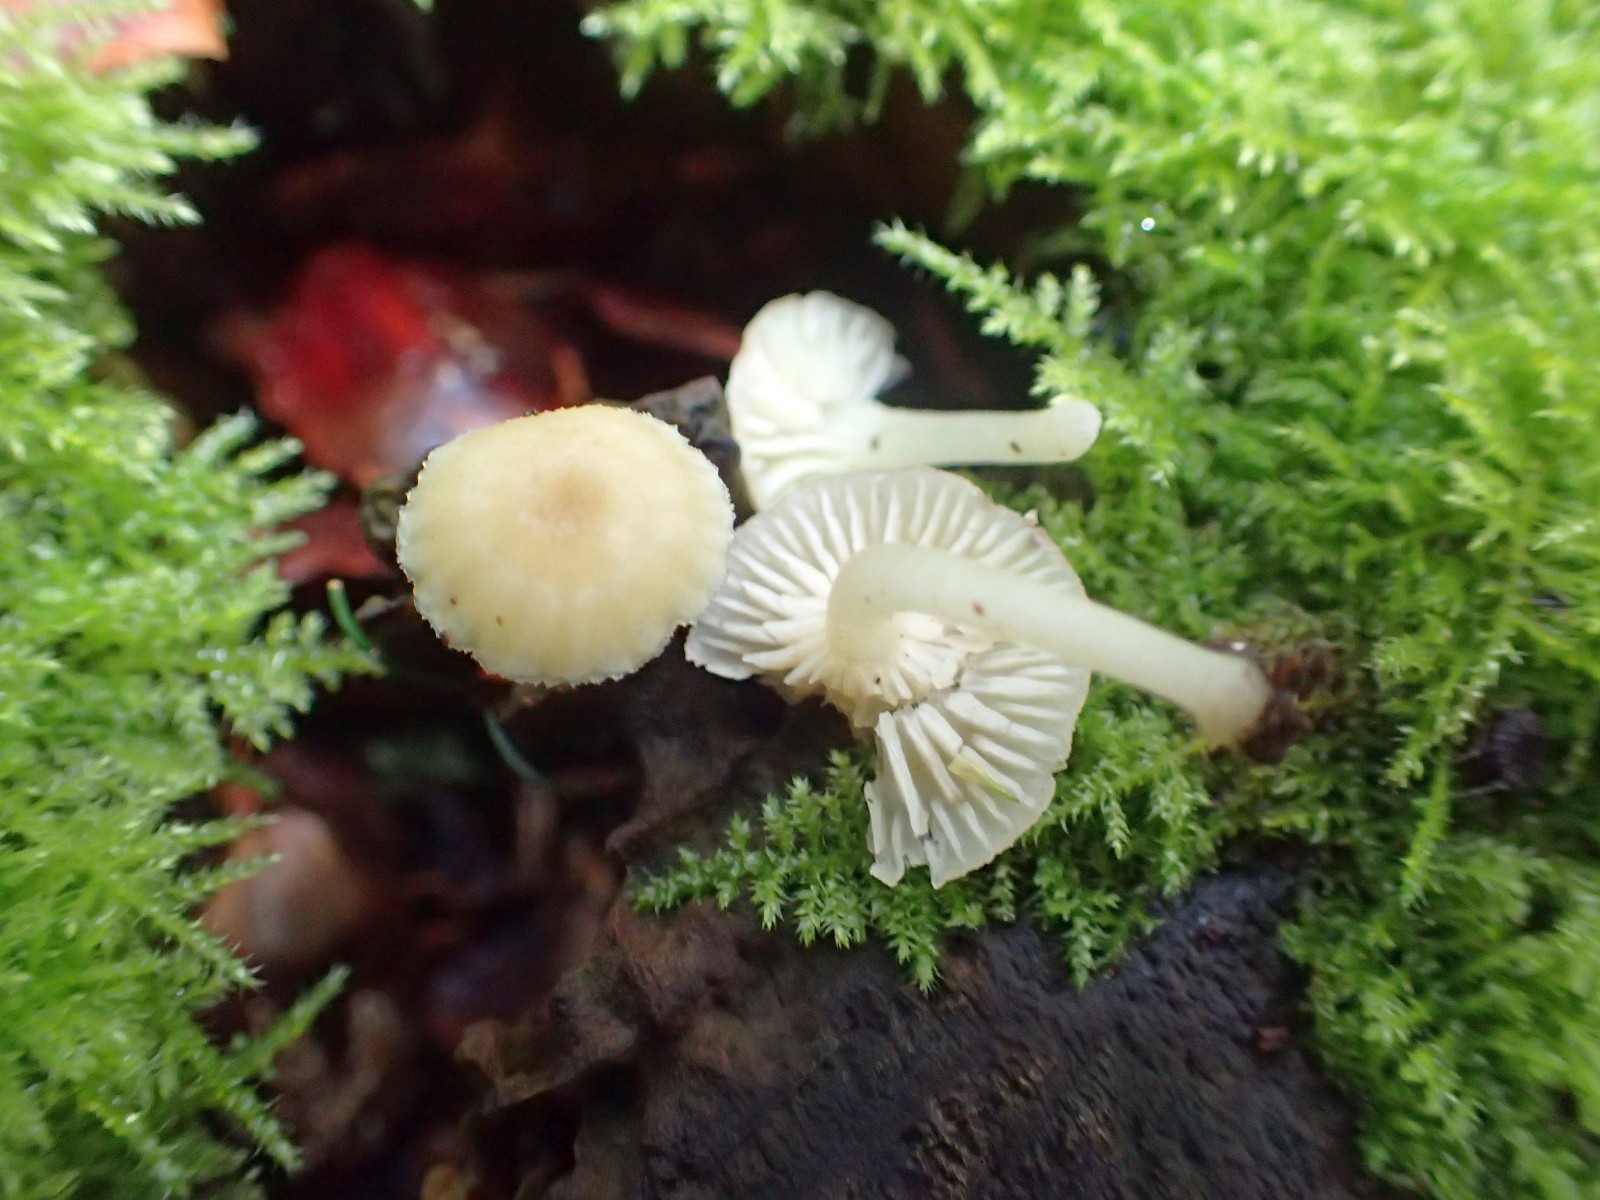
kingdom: Fungi
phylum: Basidiomycota
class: Agaricomycetes
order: Agaricales
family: Hygrophoraceae
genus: Chrysomphalina
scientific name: Chrysomphalina grossula
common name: stød-gyldenblad
